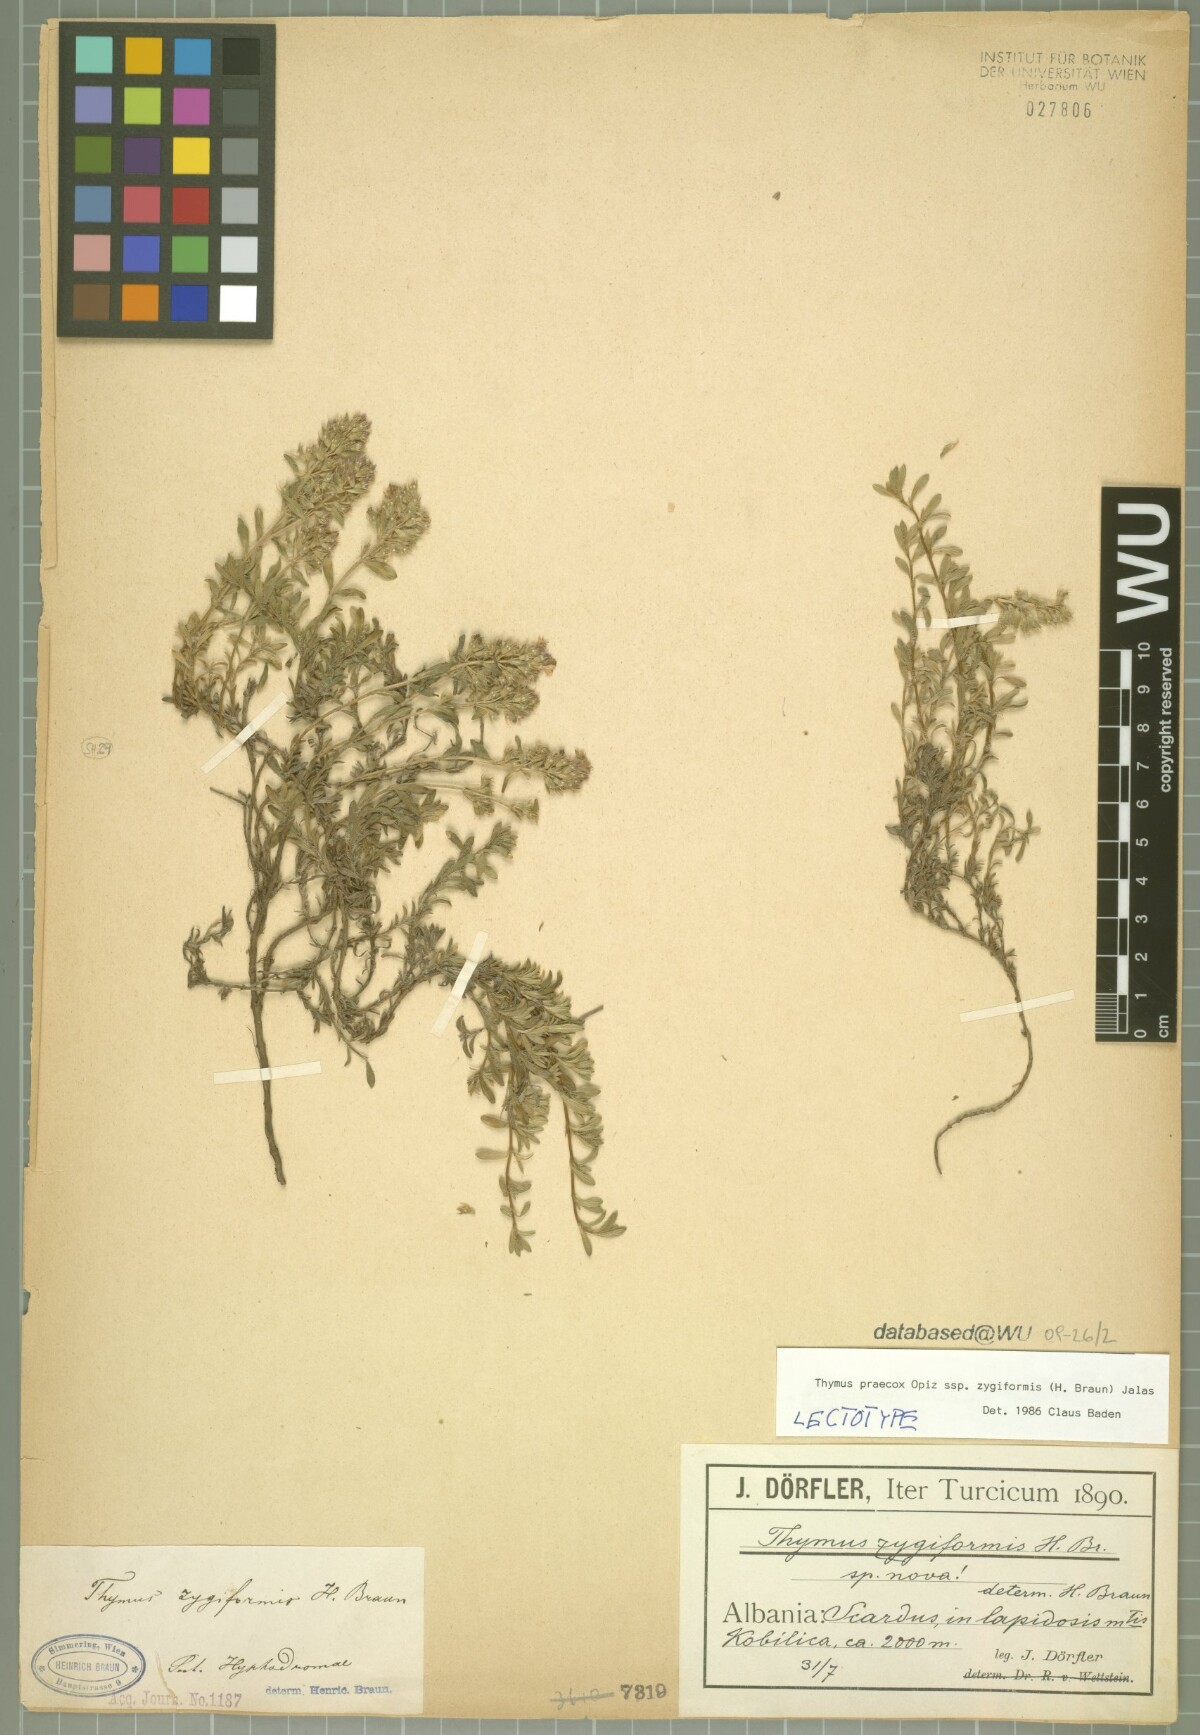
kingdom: Plantae
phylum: Tracheophyta
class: Magnoliopsida
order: Lamiales
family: Lamiaceae
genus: Thymus
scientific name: Thymus zygiformis
